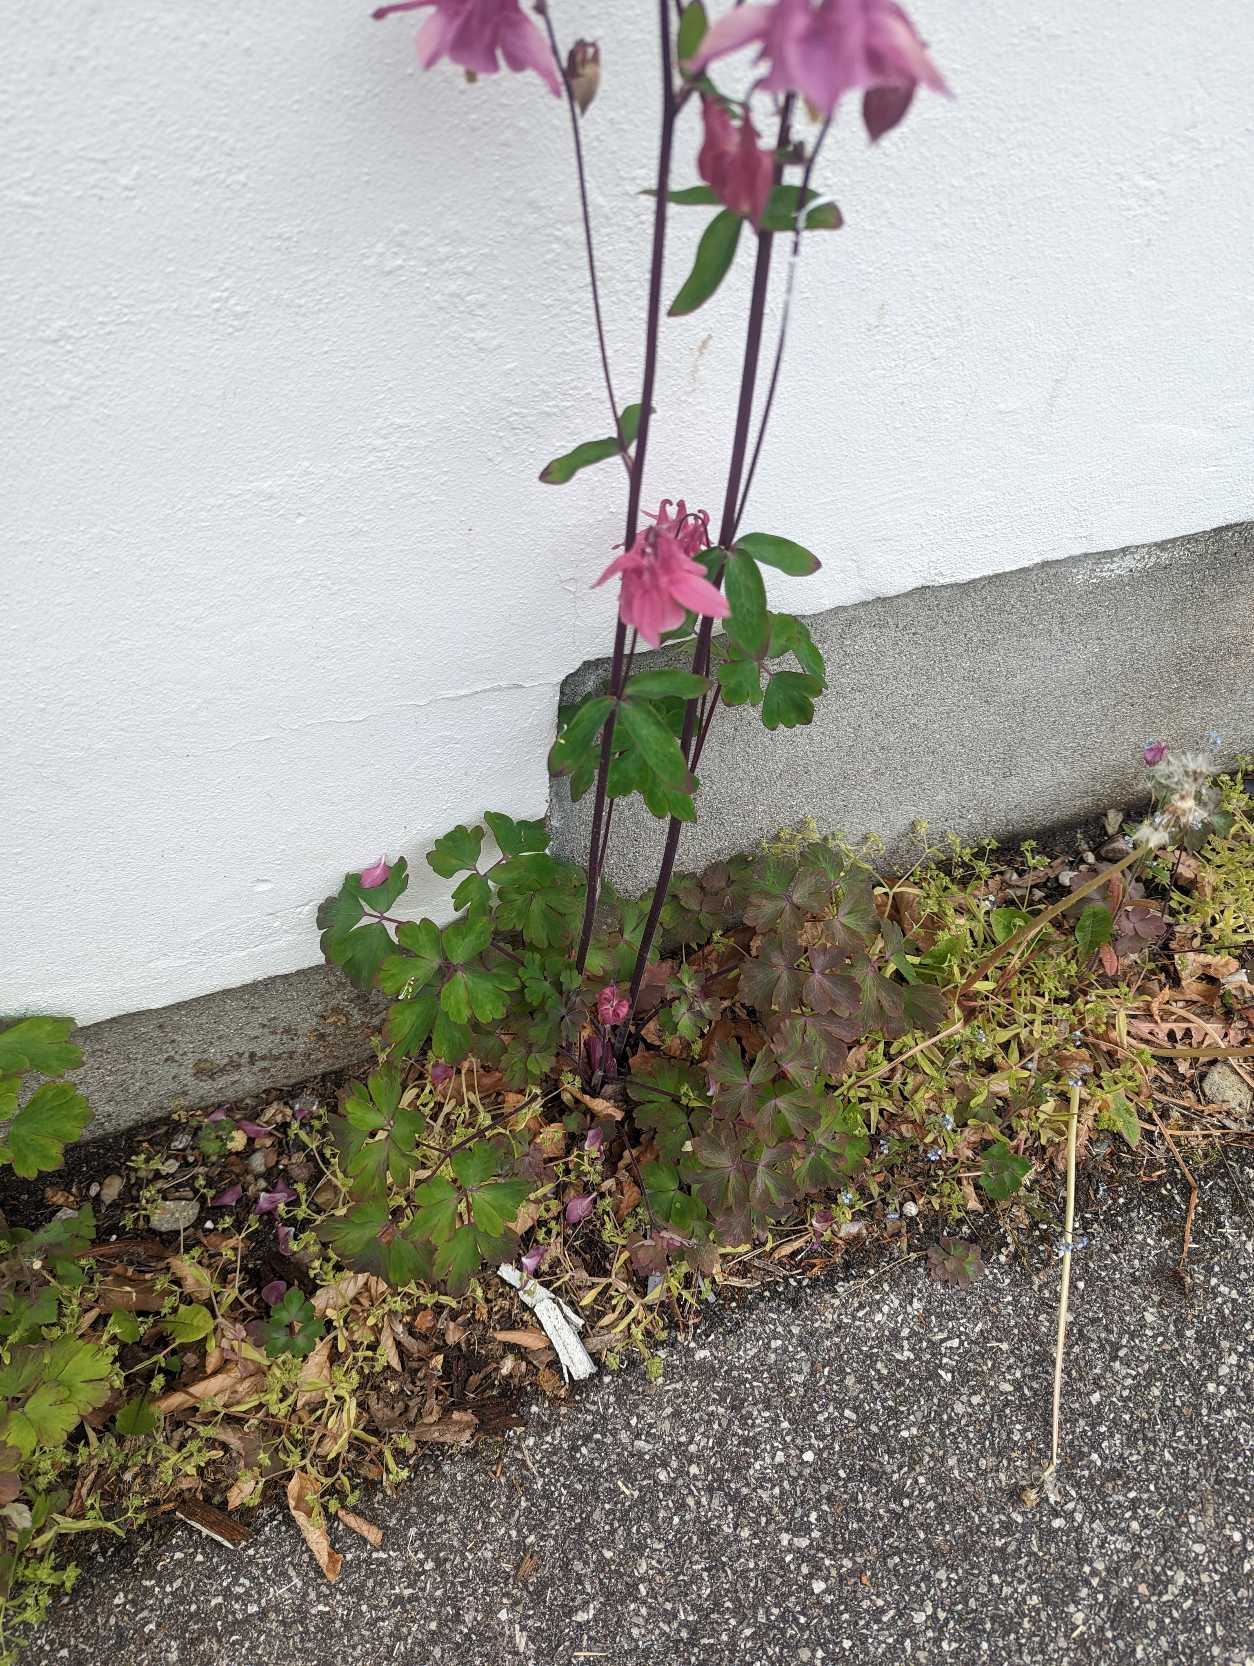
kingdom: Plantae
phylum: Tracheophyta
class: Magnoliopsida
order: Ranunculales
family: Ranunculaceae
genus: Aquilegia
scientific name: Aquilegia vulgaris
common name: Akeleje
